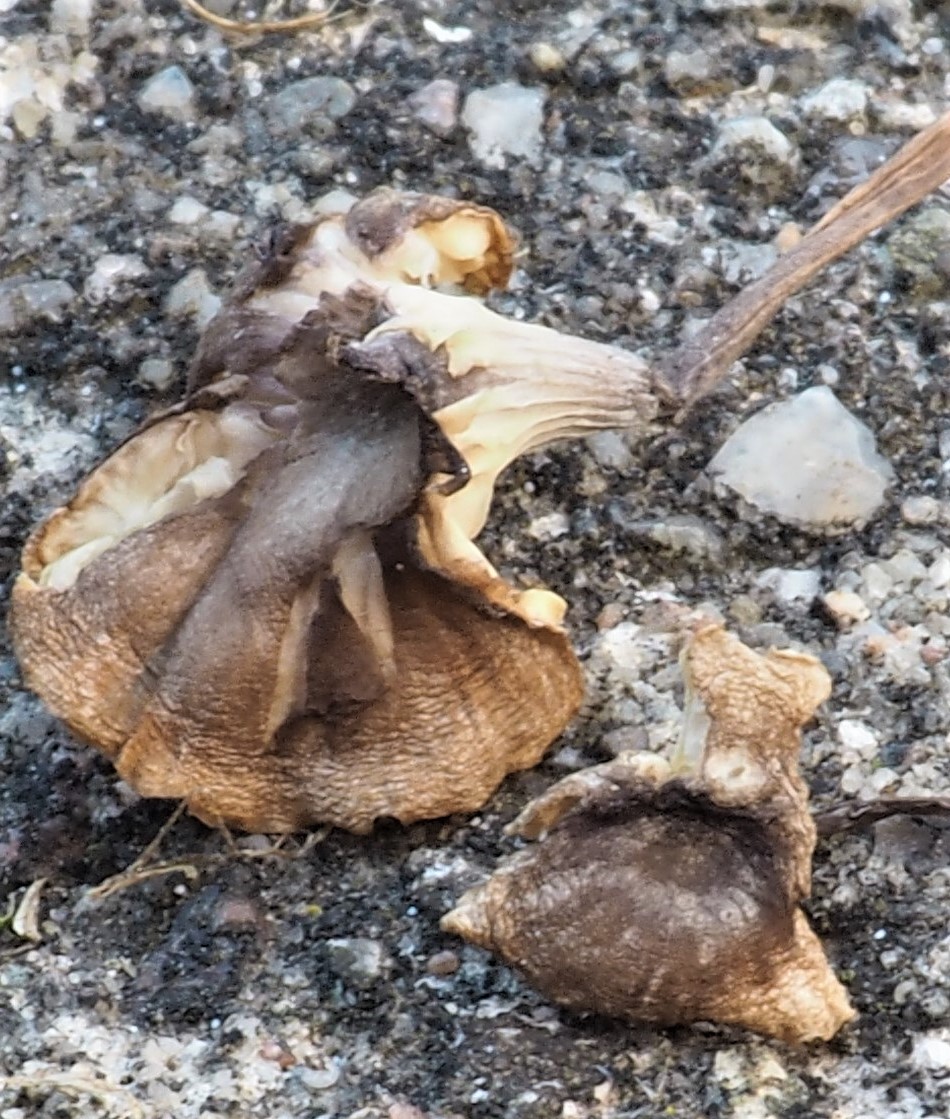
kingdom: Fungi
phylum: Basidiomycota
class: Agaricomycetes
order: Hymenochaetales
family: Rickenellaceae
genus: Rickenella
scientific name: Rickenella swartzii
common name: finstokket mosnavlehat
